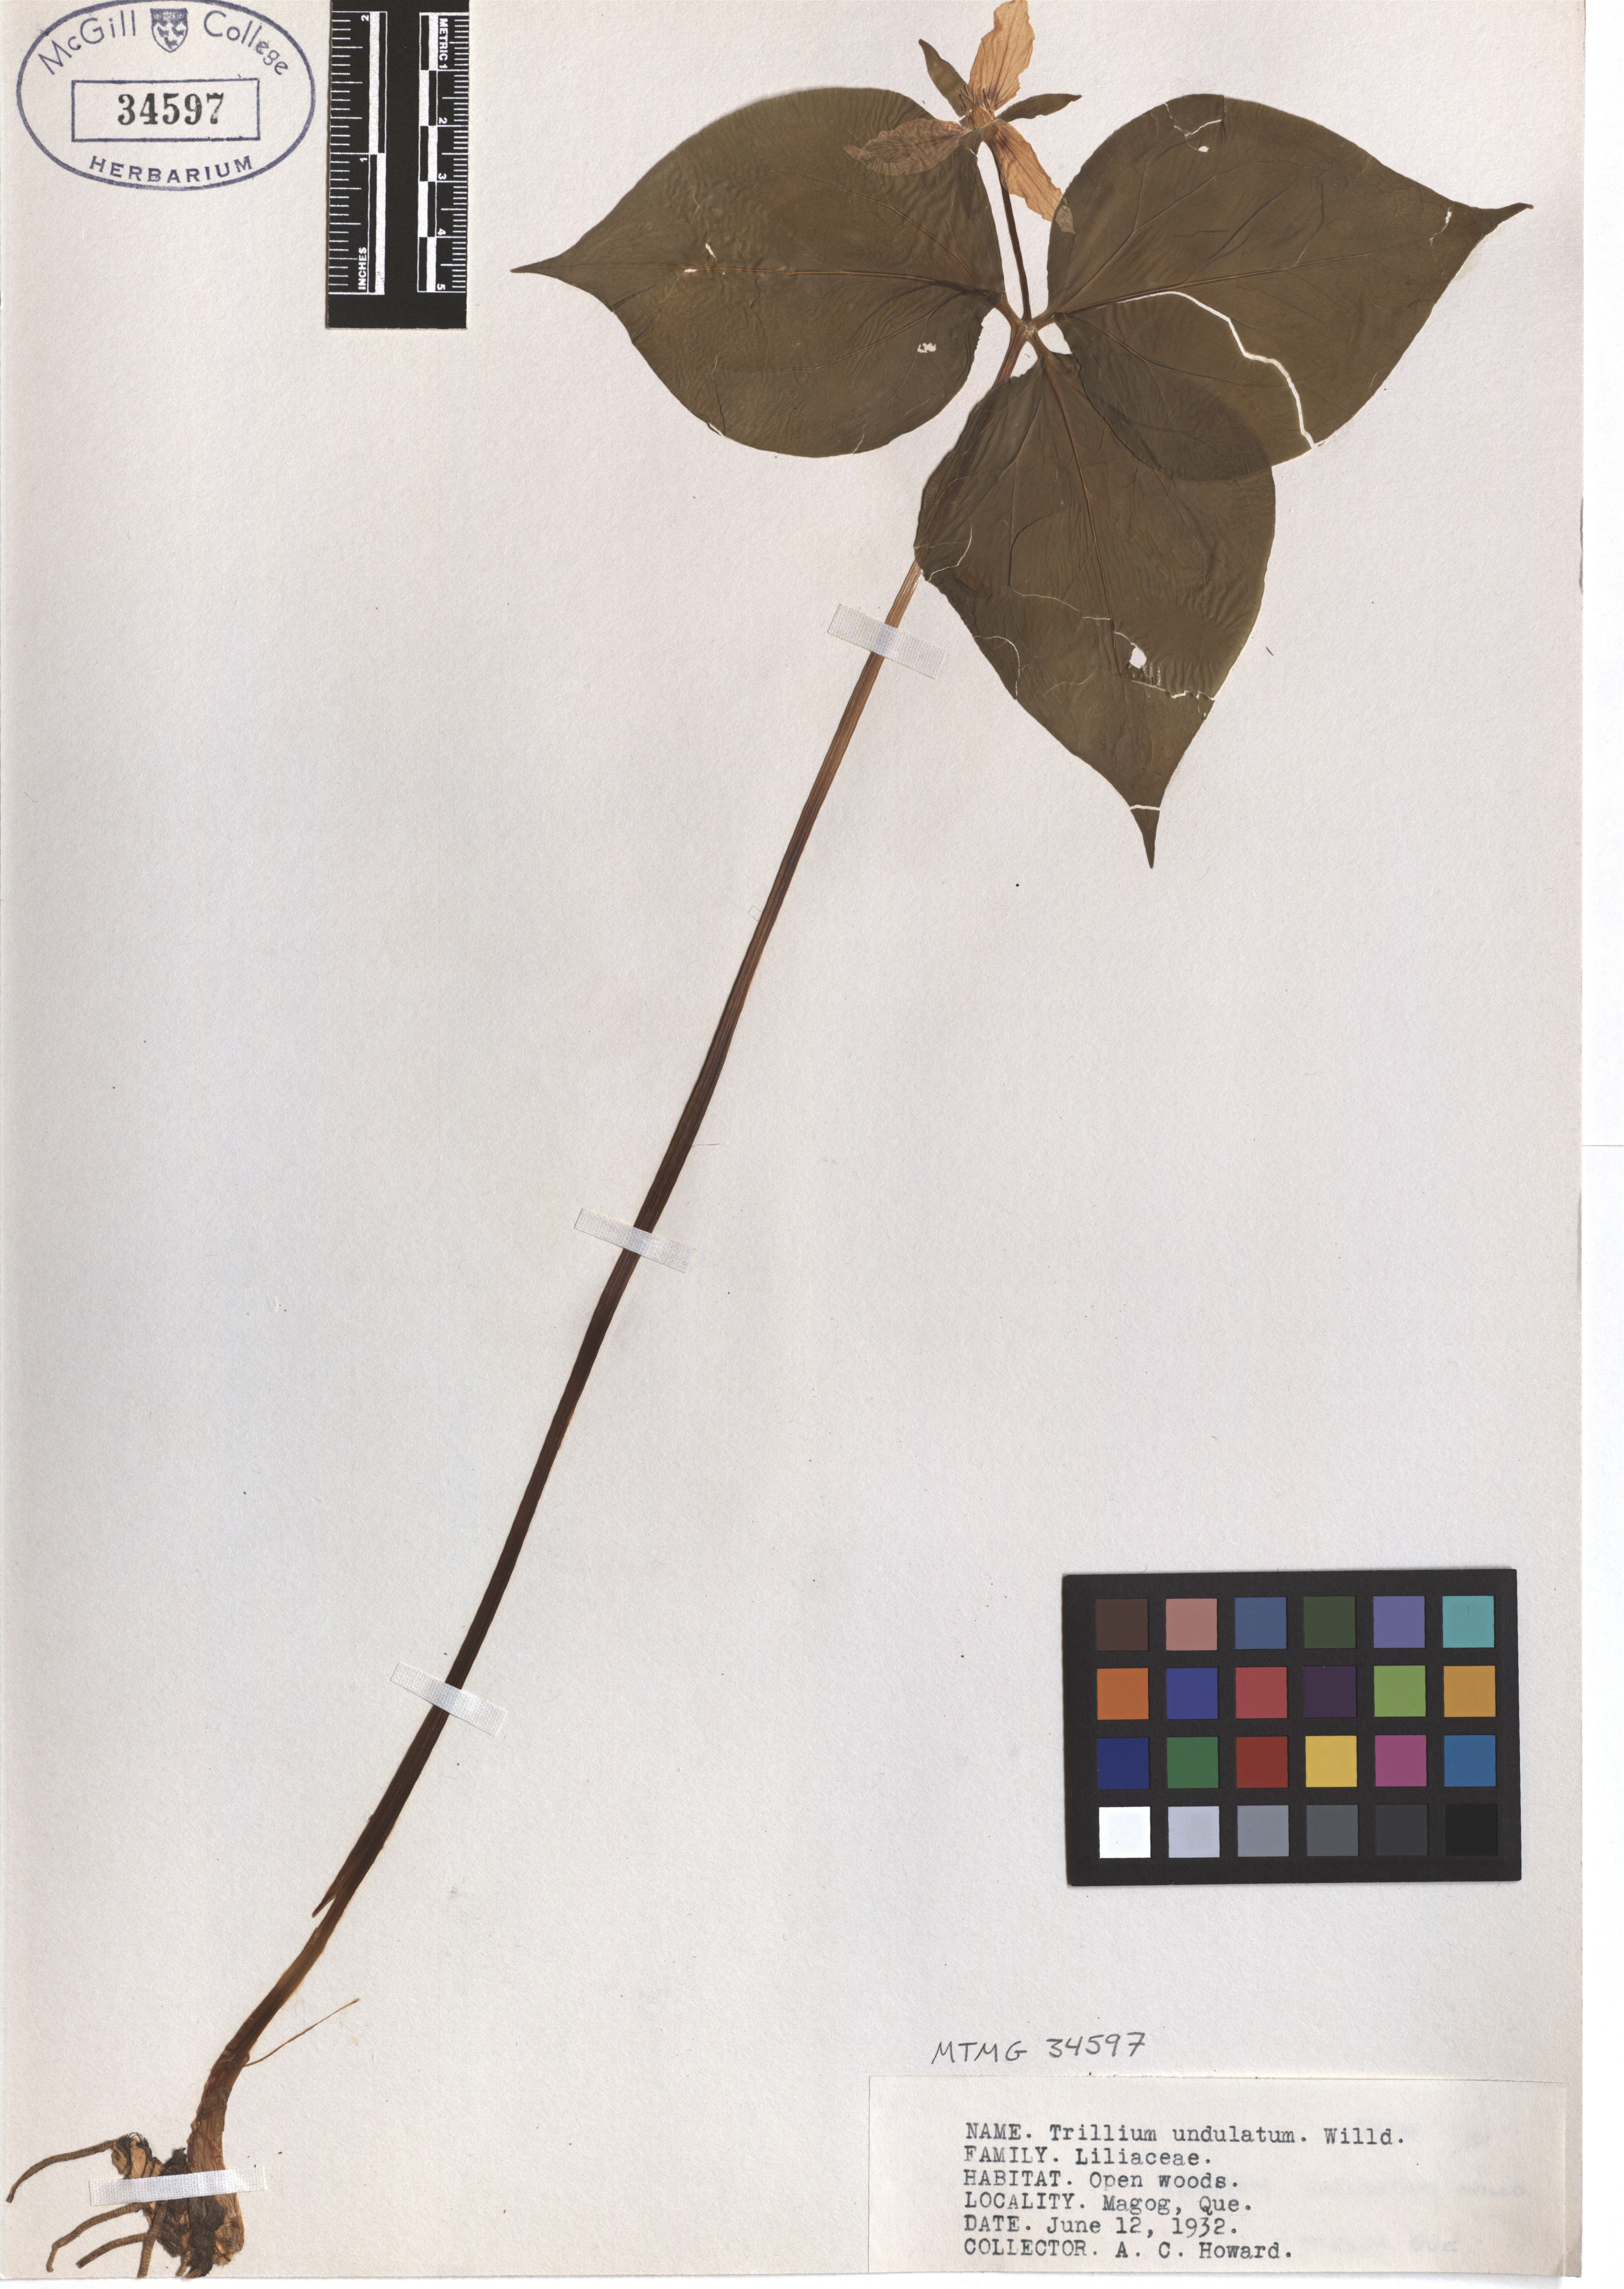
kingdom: Plantae
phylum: Tracheophyta
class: Liliopsida
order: Liliales
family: Melanthiaceae
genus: Trillium
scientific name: Trillium undulatum
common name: Paint trillium
